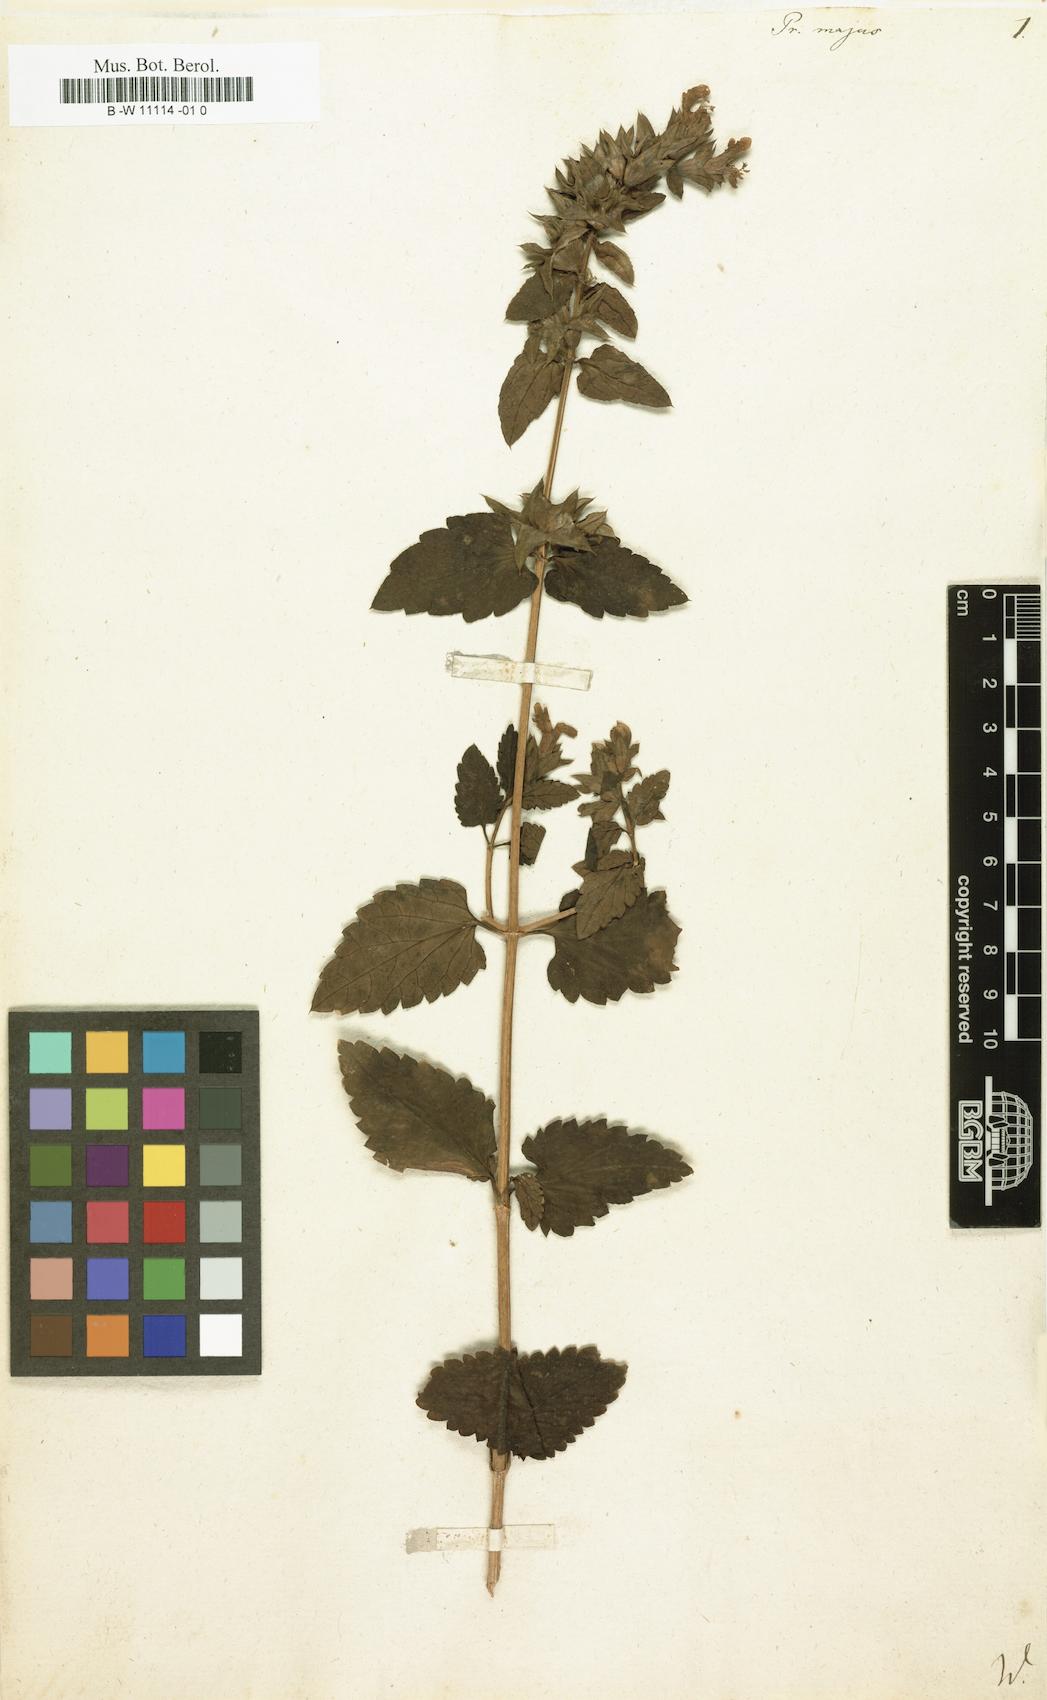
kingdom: Plantae
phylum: Tracheophyta
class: Magnoliopsida
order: Lamiales
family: Lamiaceae
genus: Prasium
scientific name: Prasium majus
